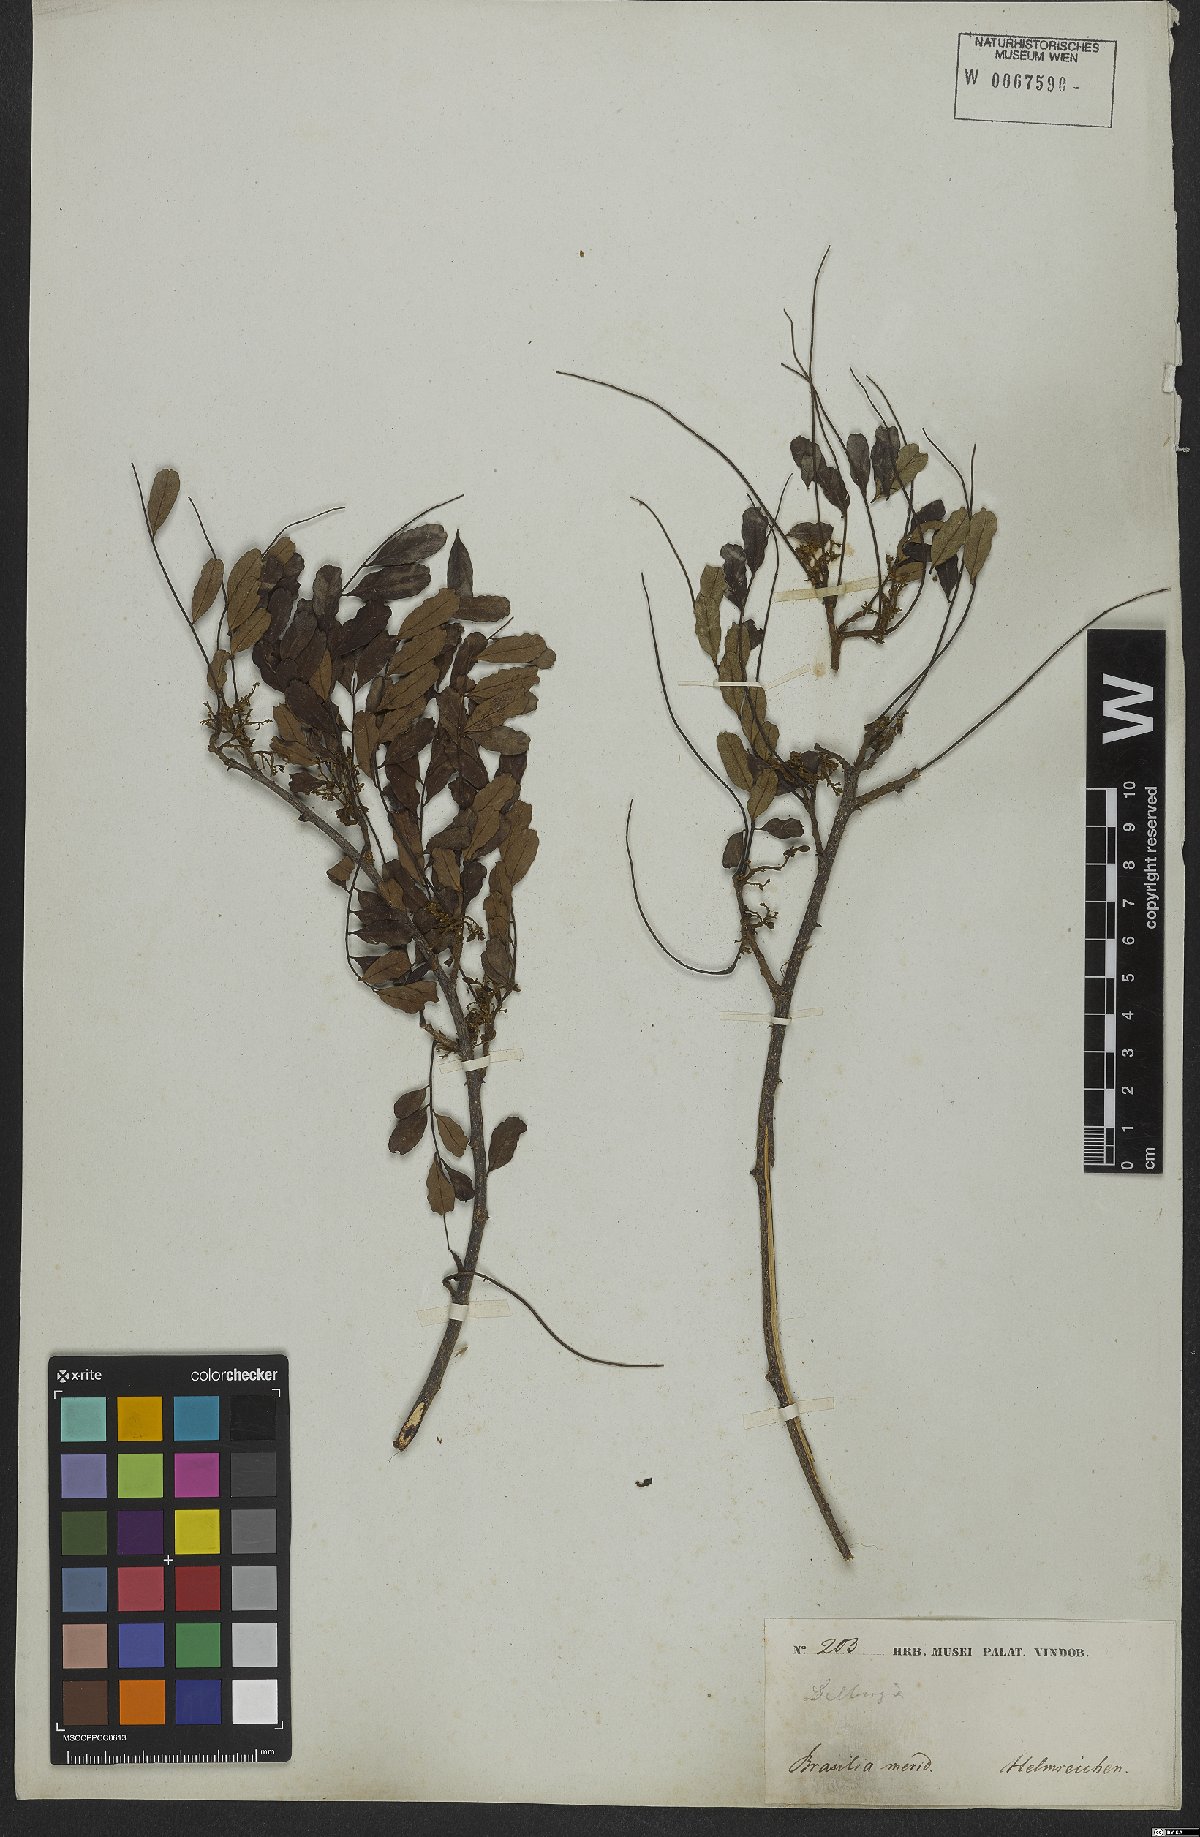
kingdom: Plantae
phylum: Tracheophyta
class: Magnoliopsida
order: Fabales
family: Fabaceae
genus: Dalbergia
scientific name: Dalbergia
